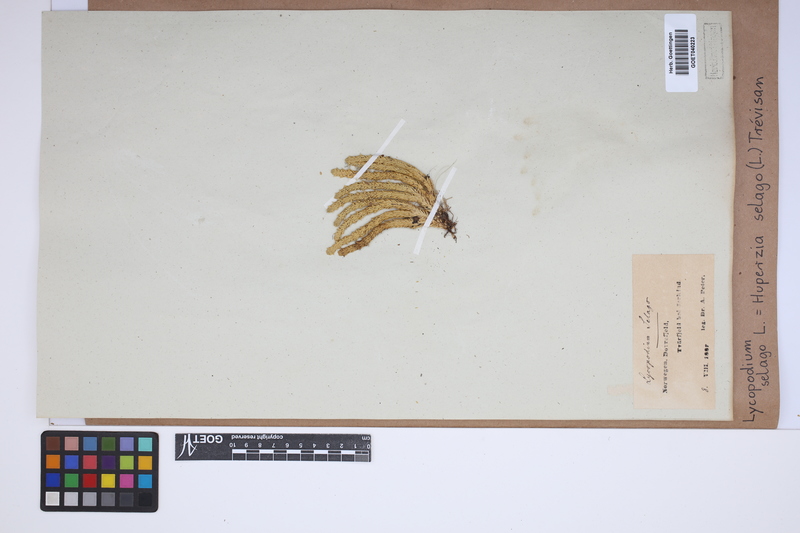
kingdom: Plantae
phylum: Tracheophyta
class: Lycopodiopsida
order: Lycopodiales
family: Lycopodiaceae
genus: Huperzia
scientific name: Huperzia selago
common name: Northern firmoss
